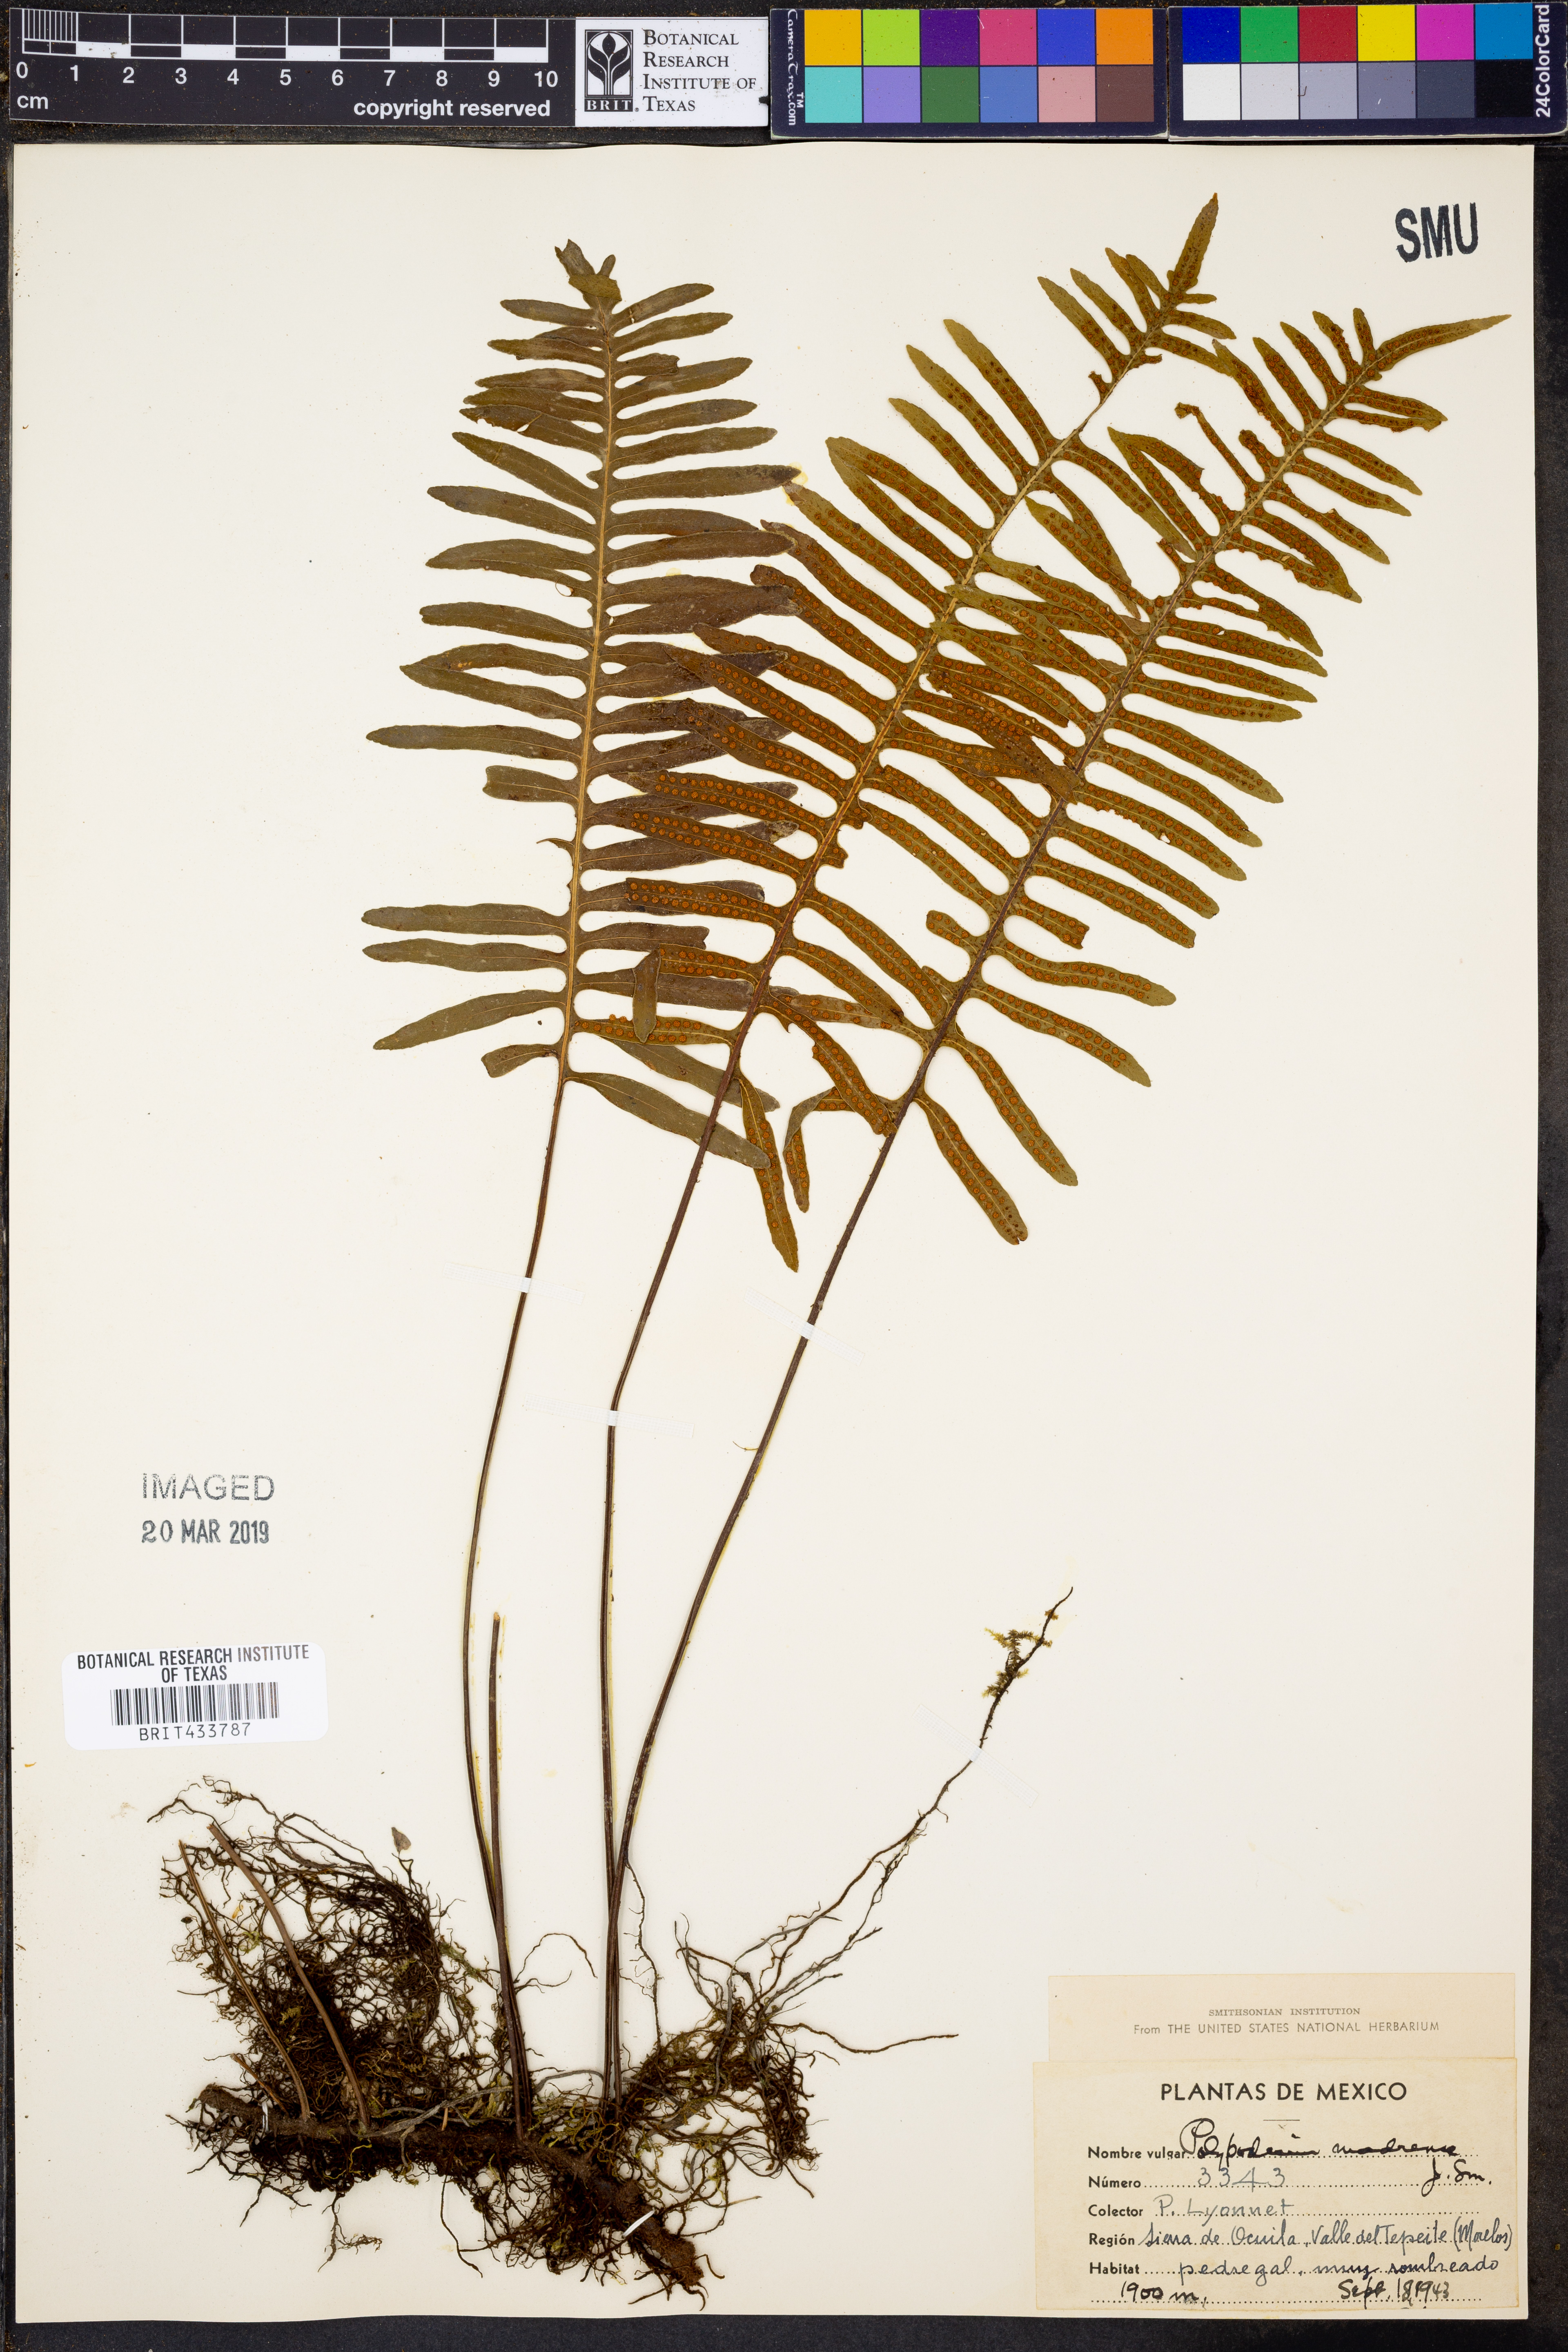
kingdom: Plantae
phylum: Tracheophyta
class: Polypodiopsida
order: Polypodiales
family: Polypodiaceae
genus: Pleopeltis
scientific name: Pleopeltis madrensis
